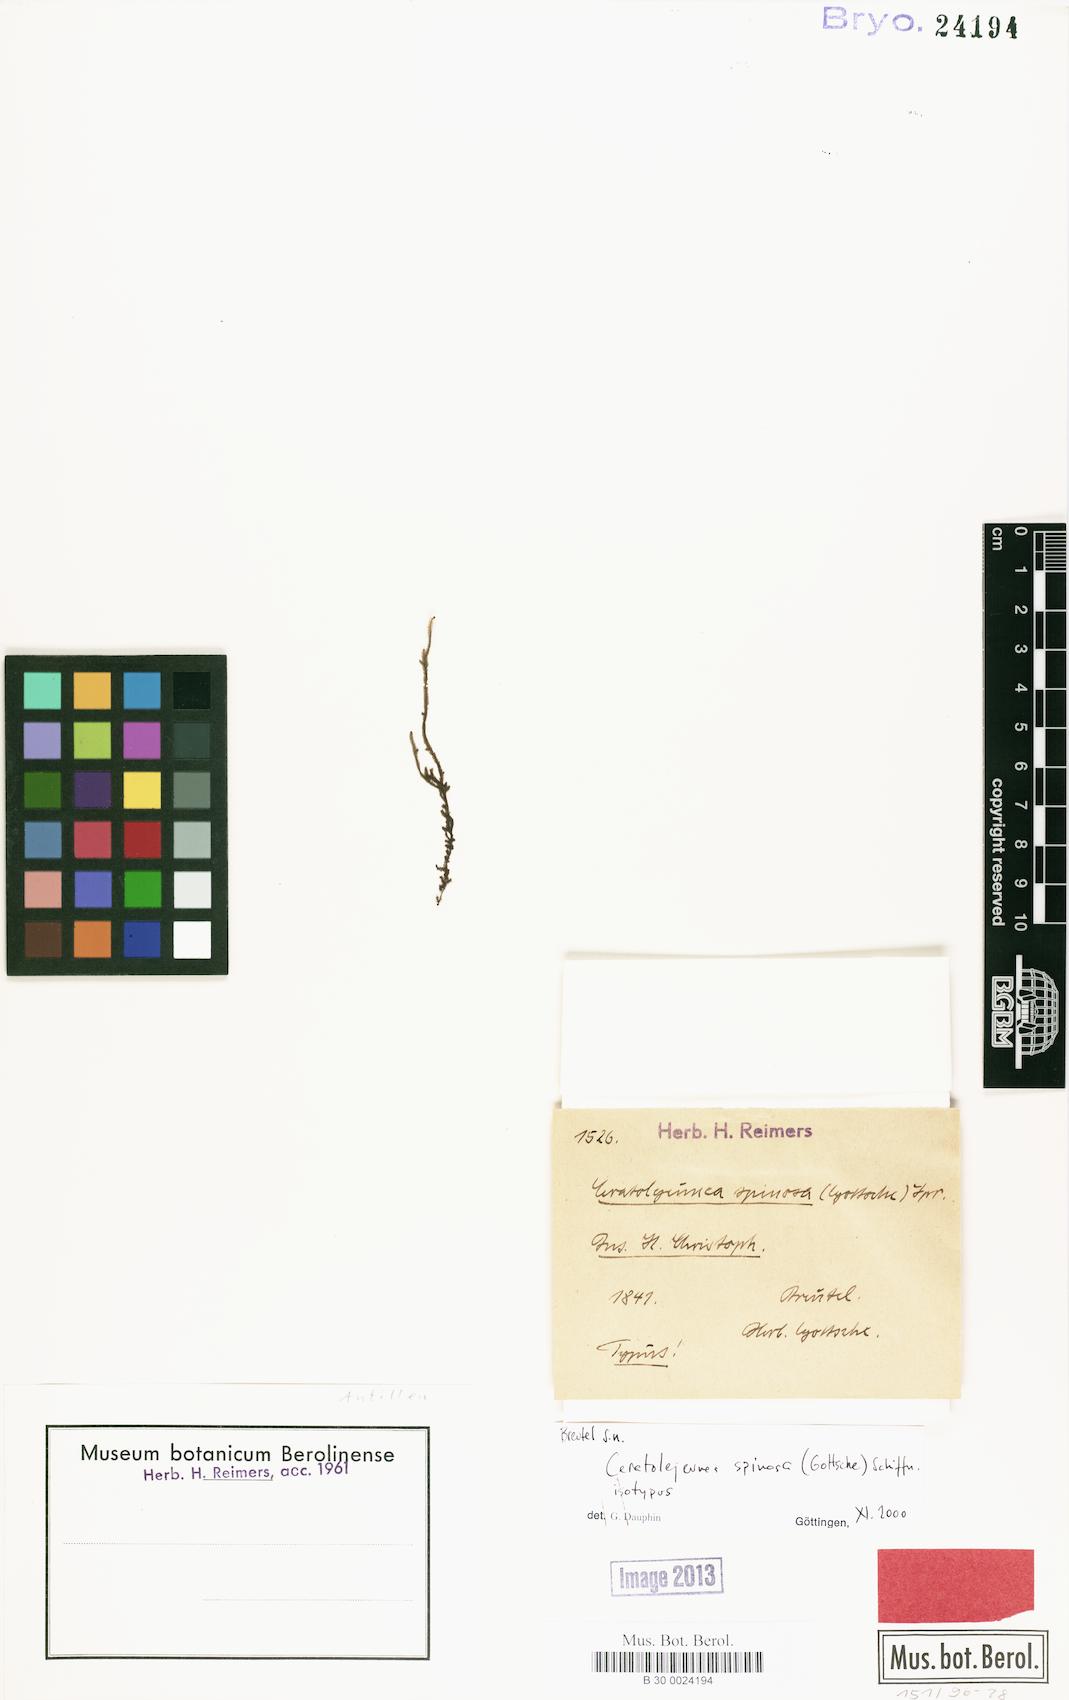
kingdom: Plantae
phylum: Marchantiophyta
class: Jungermanniopsida
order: Porellales
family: Lejeuneaceae
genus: Ceratolejeunea
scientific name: Ceratolejeunea spinosa
